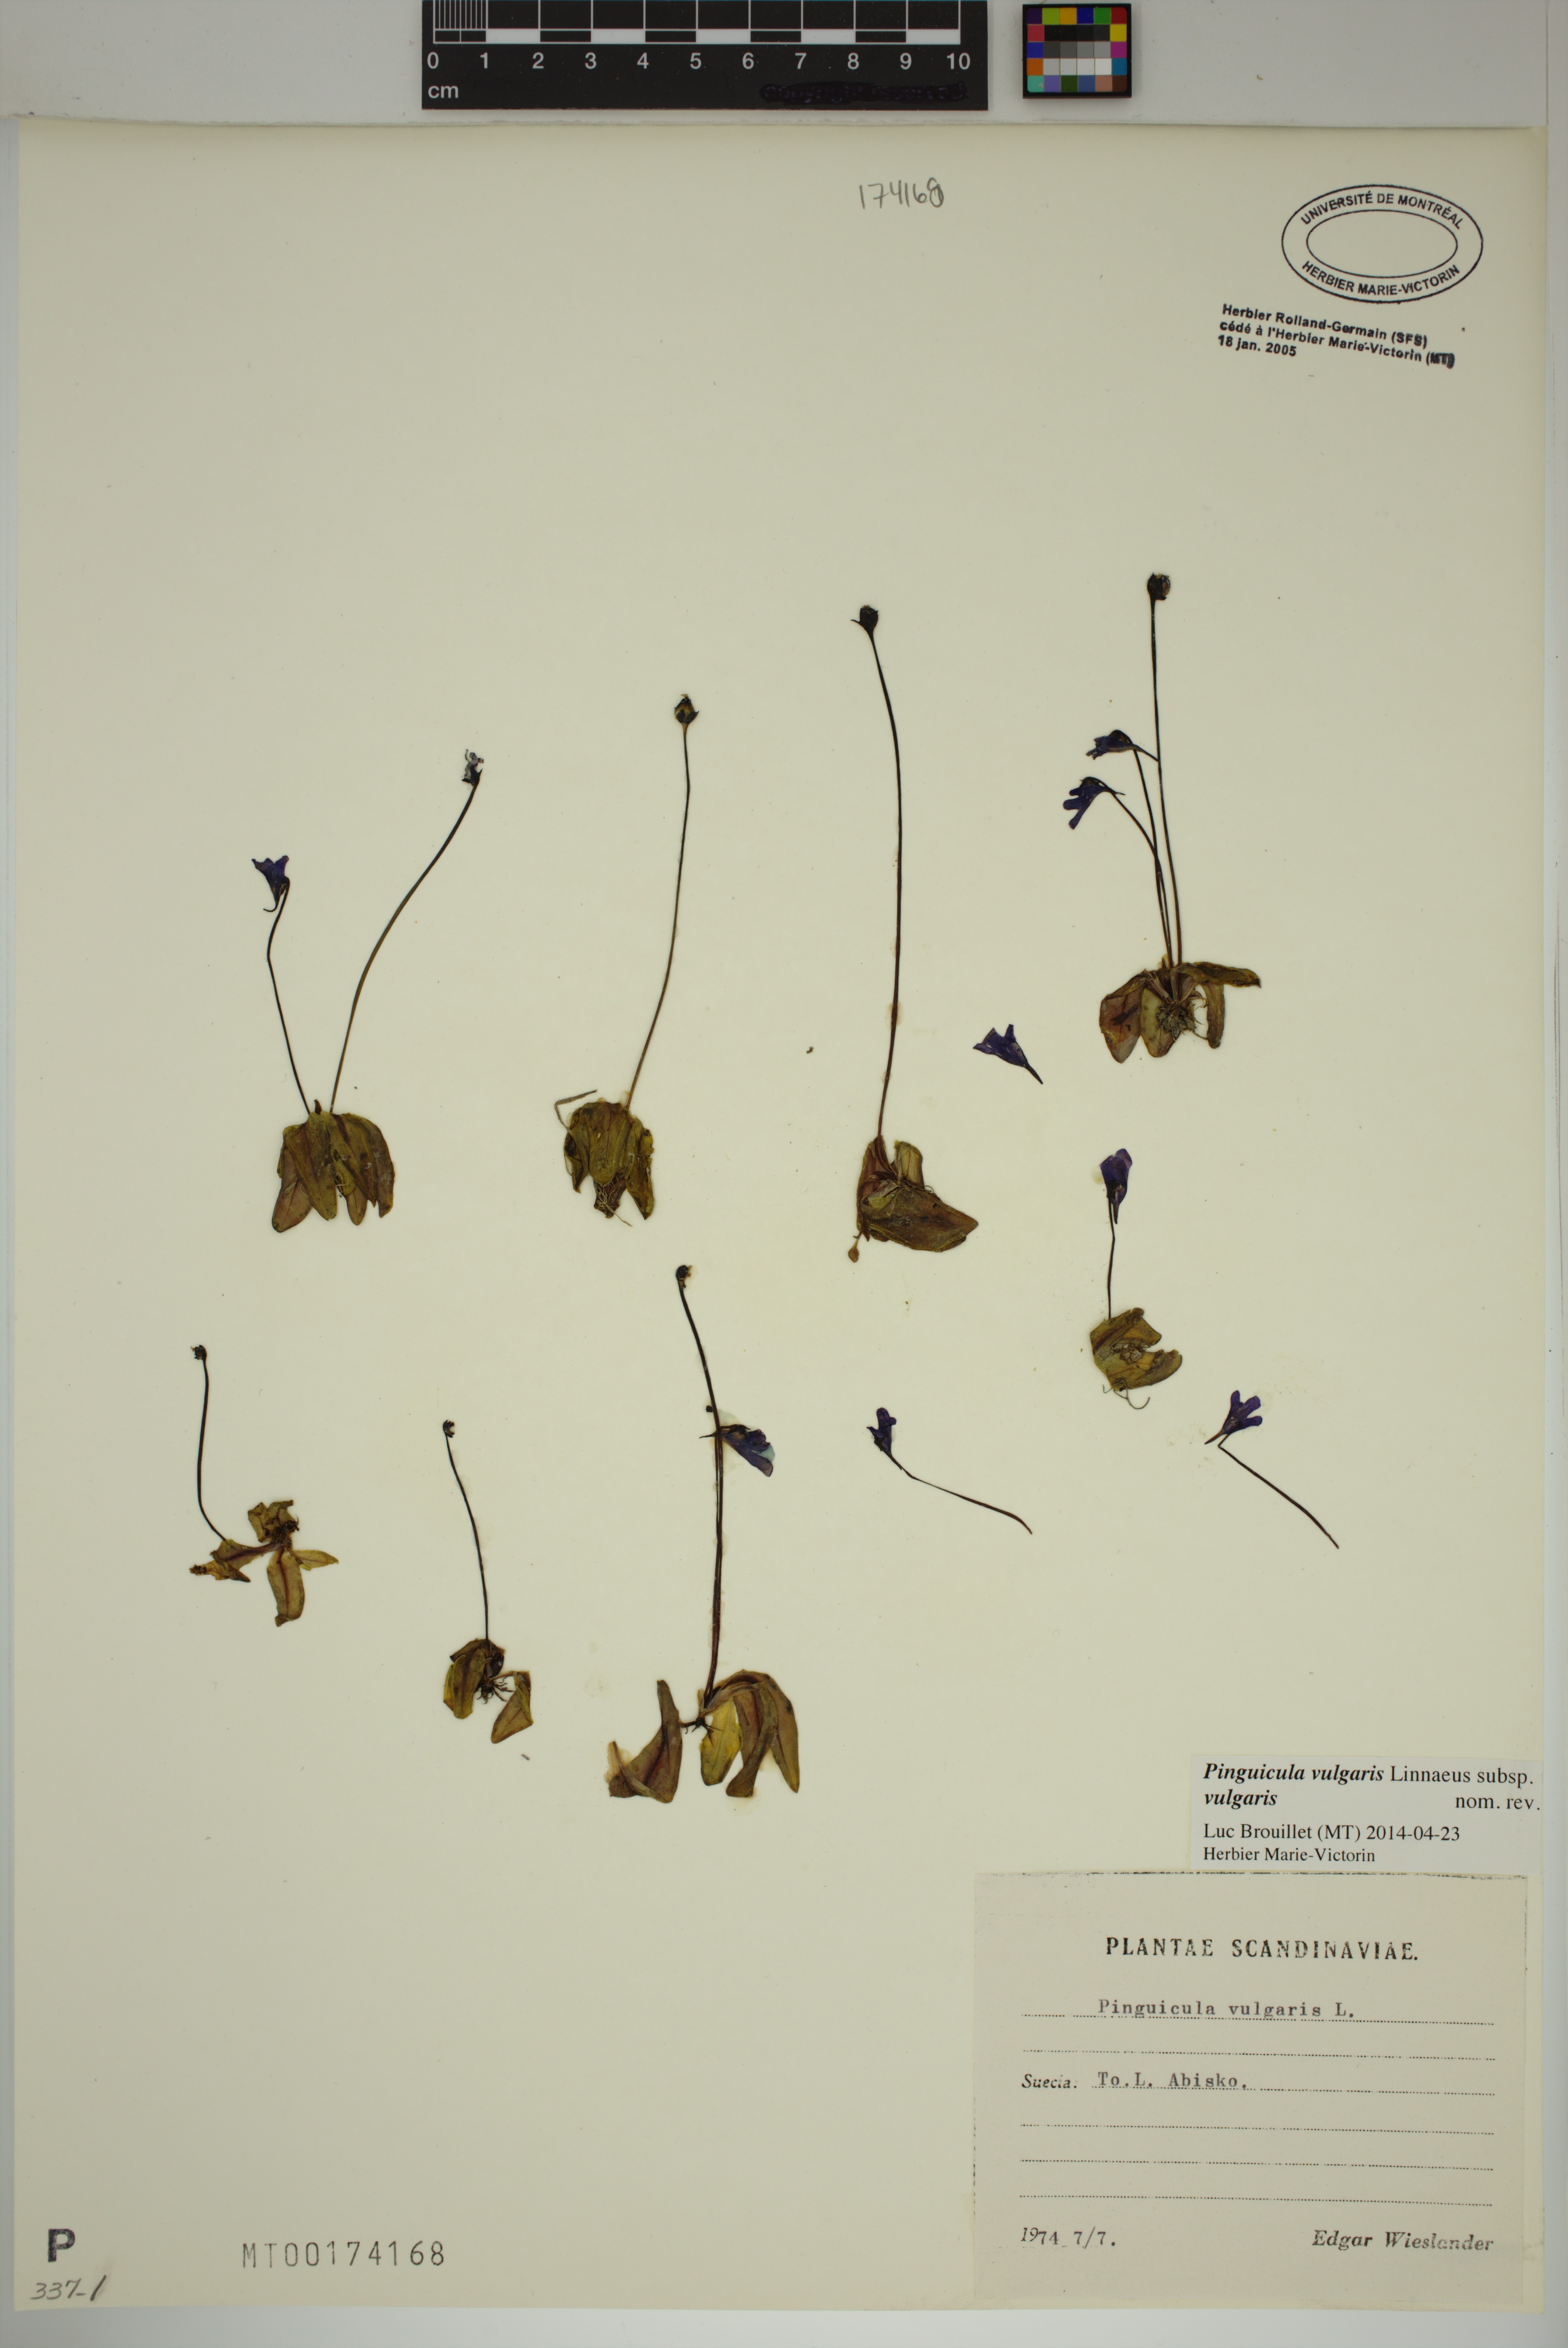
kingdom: Plantae
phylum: Tracheophyta
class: Magnoliopsida
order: Lamiales
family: Lentibulariaceae
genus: Pinguicula
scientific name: Pinguicula vulgaris
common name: Common butterwort
